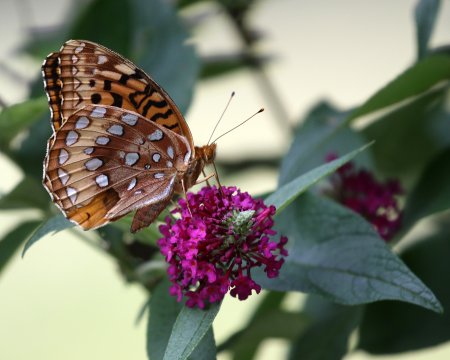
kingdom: Animalia
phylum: Arthropoda
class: Insecta
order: Lepidoptera
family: Nymphalidae
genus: Speyeria
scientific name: Speyeria cybele
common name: Great Spangled Fritillary
